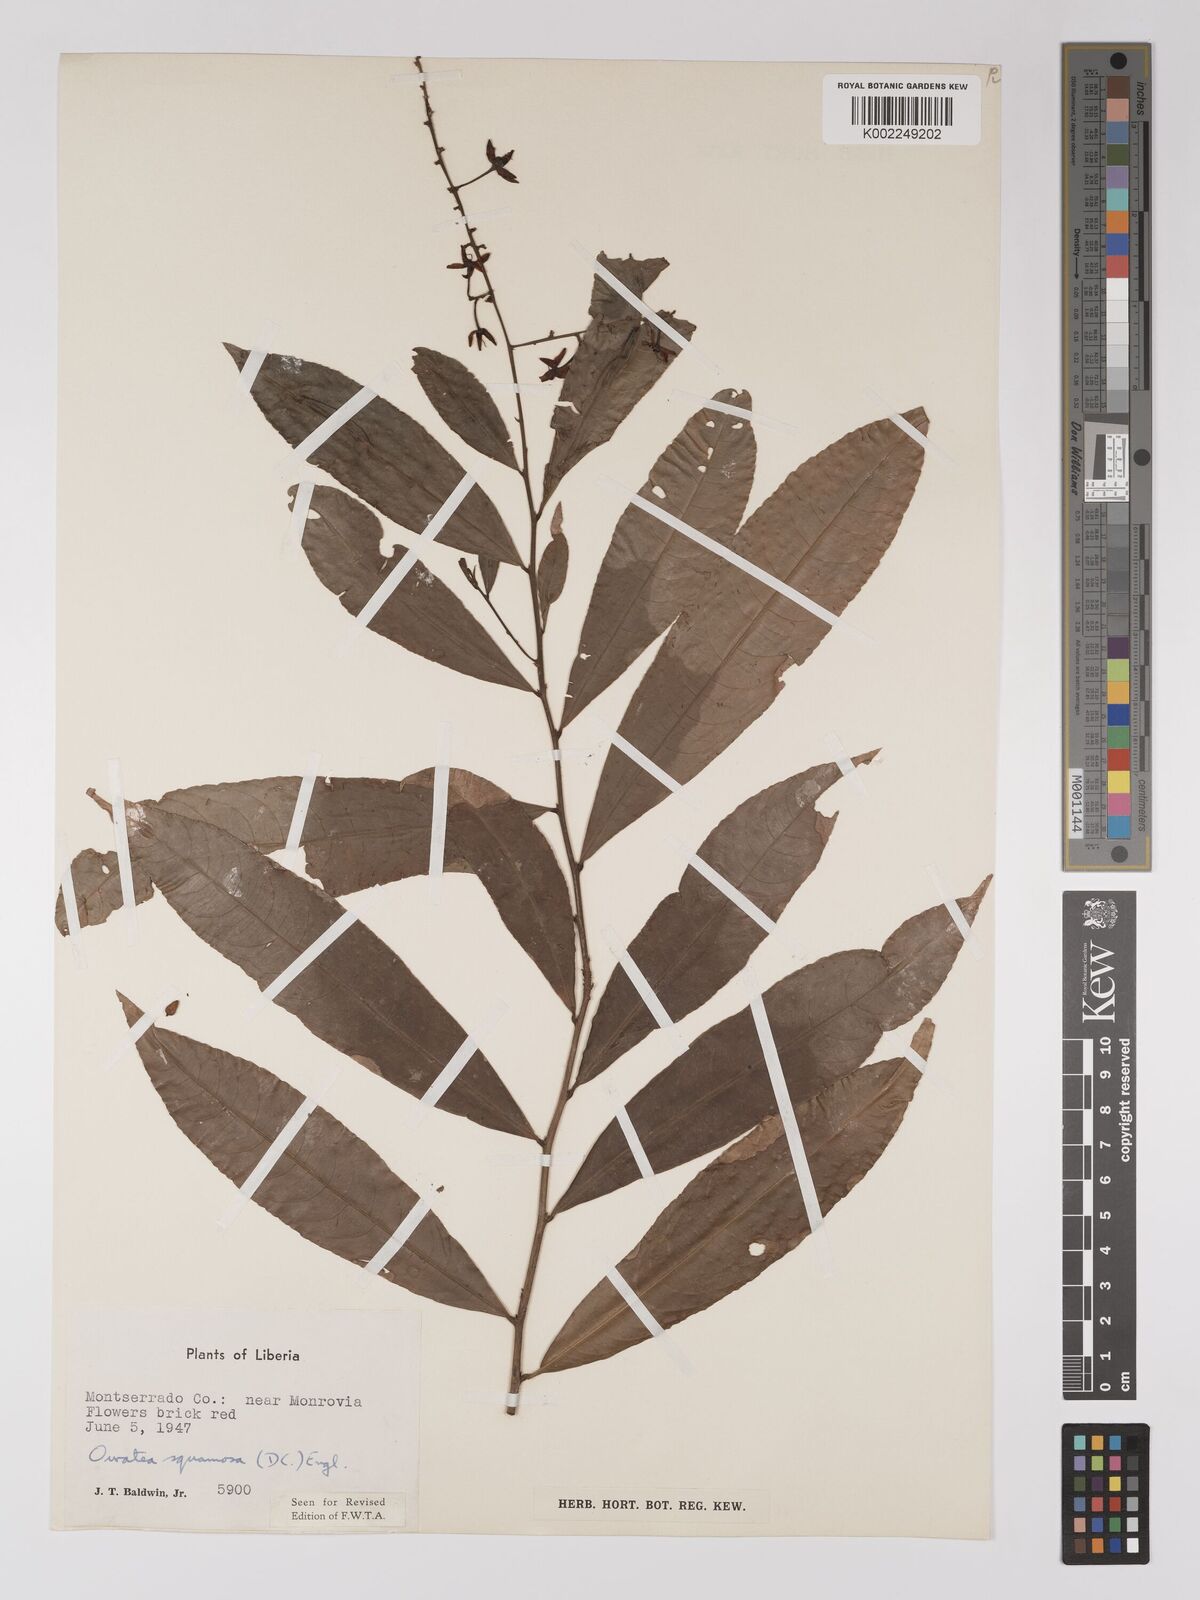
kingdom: Plantae
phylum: Tracheophyta
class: Magnoliopsida
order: Malpighiales
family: Ochnaceae
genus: Campylospermum
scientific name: Campylospermum squamosum
